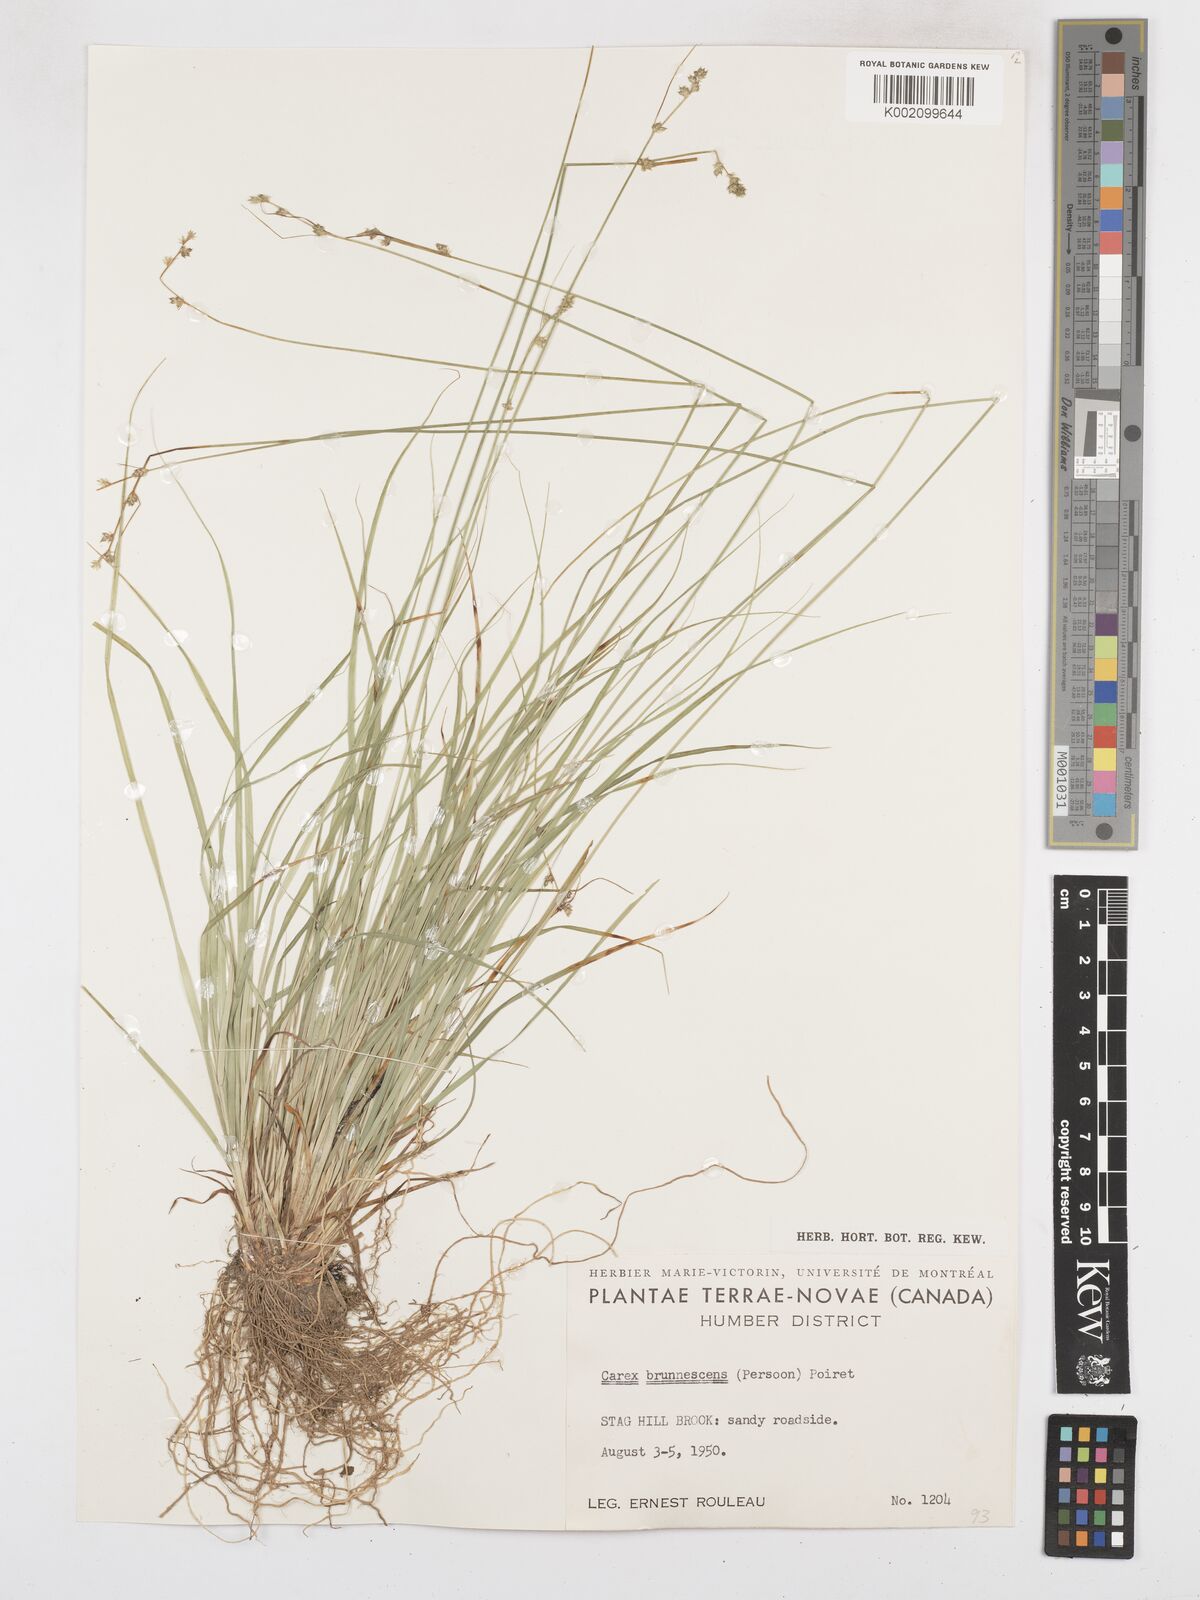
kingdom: Plantae
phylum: Tracheophyta
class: Liliopsida
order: Poales
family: Cyperaceae
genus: Carex
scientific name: Carex brunnescens
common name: Brown sedge
